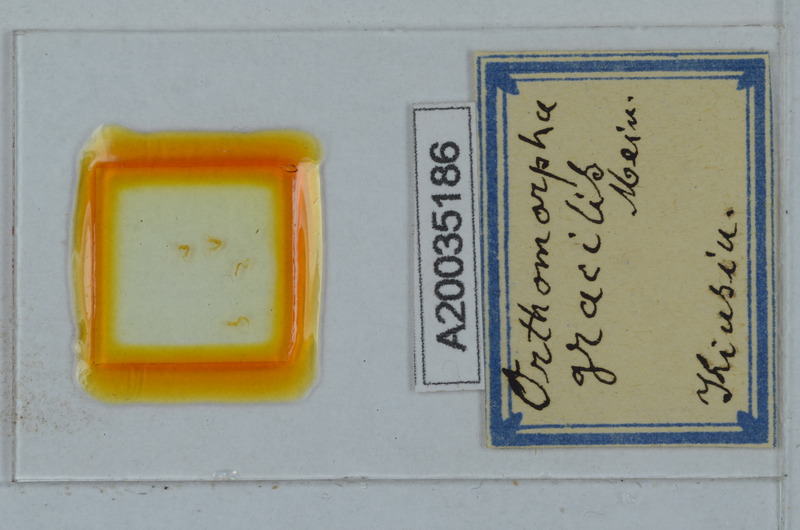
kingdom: Animalia
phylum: Arthropoda
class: Diplopoda
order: Polydesmida
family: Paradoxosomatidae
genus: Oxidus
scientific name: Oxidus gracilis
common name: Greenhouse millipede
